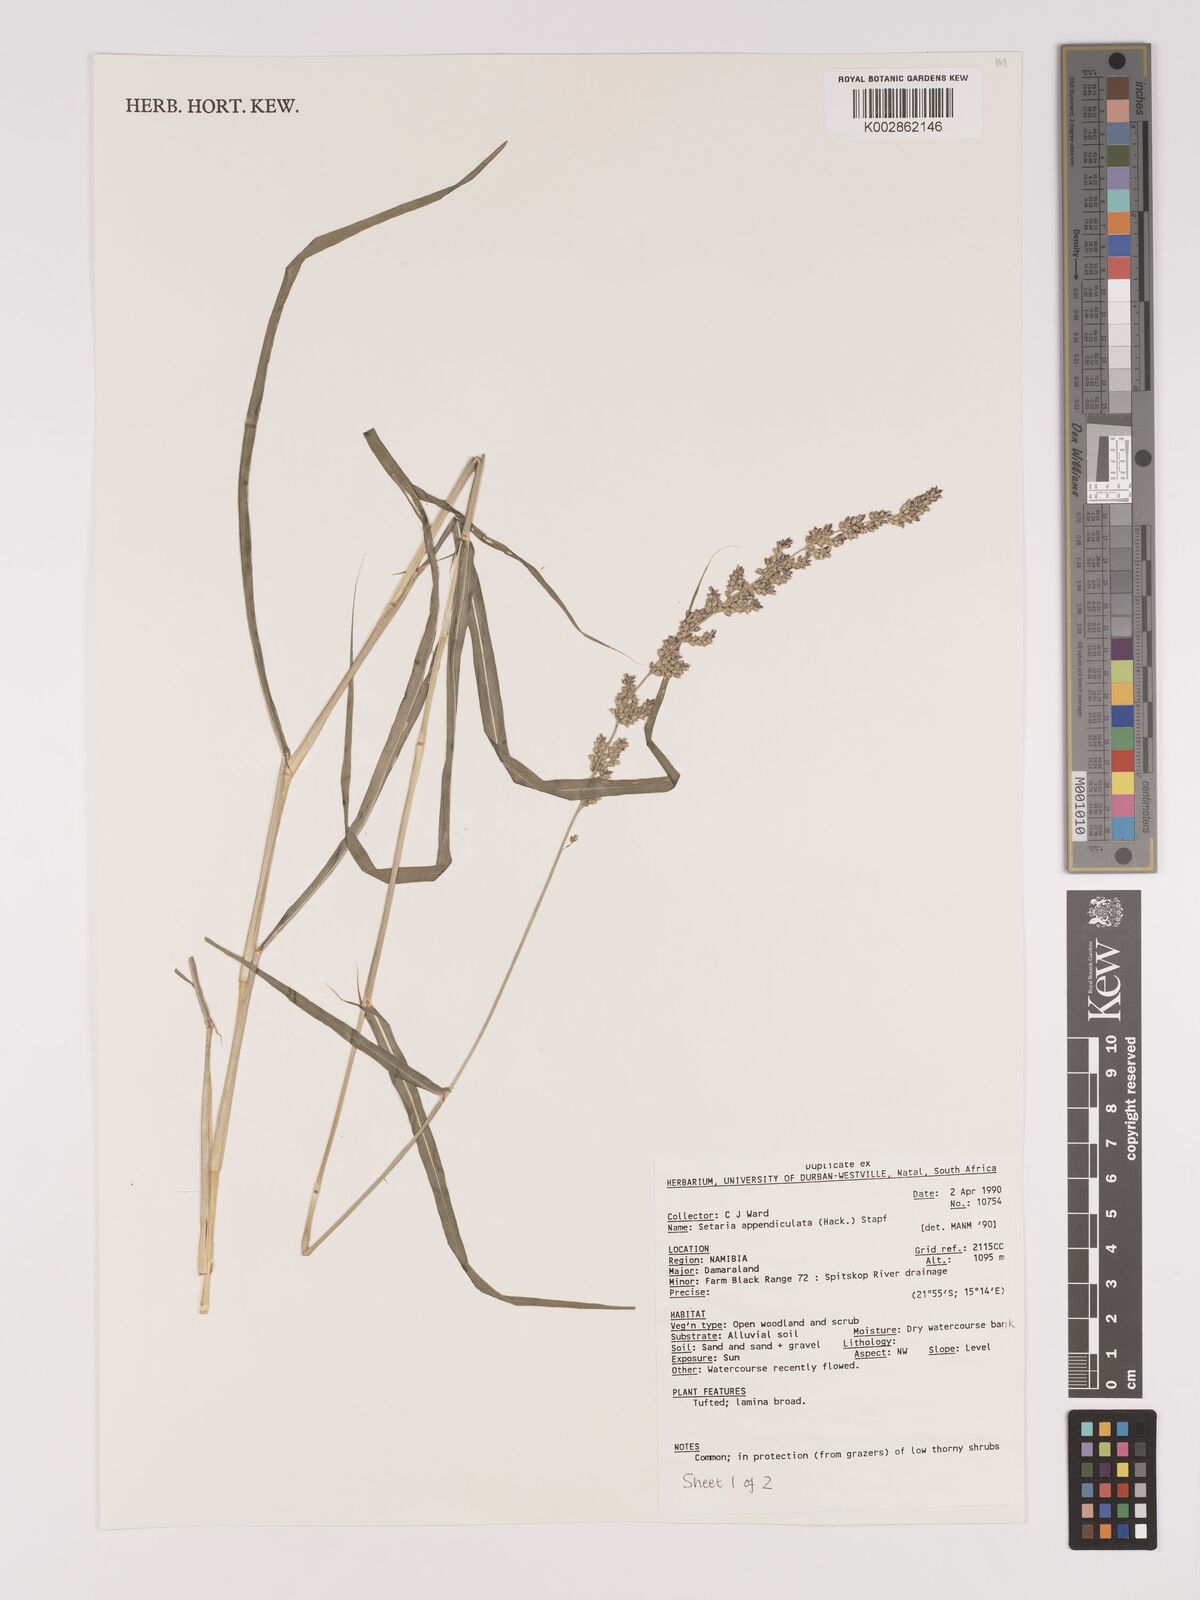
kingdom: Plantae
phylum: Tracheophyta
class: Liliopsida
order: Poales
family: Poaceae
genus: Setaria
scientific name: Setaria appendiculata
